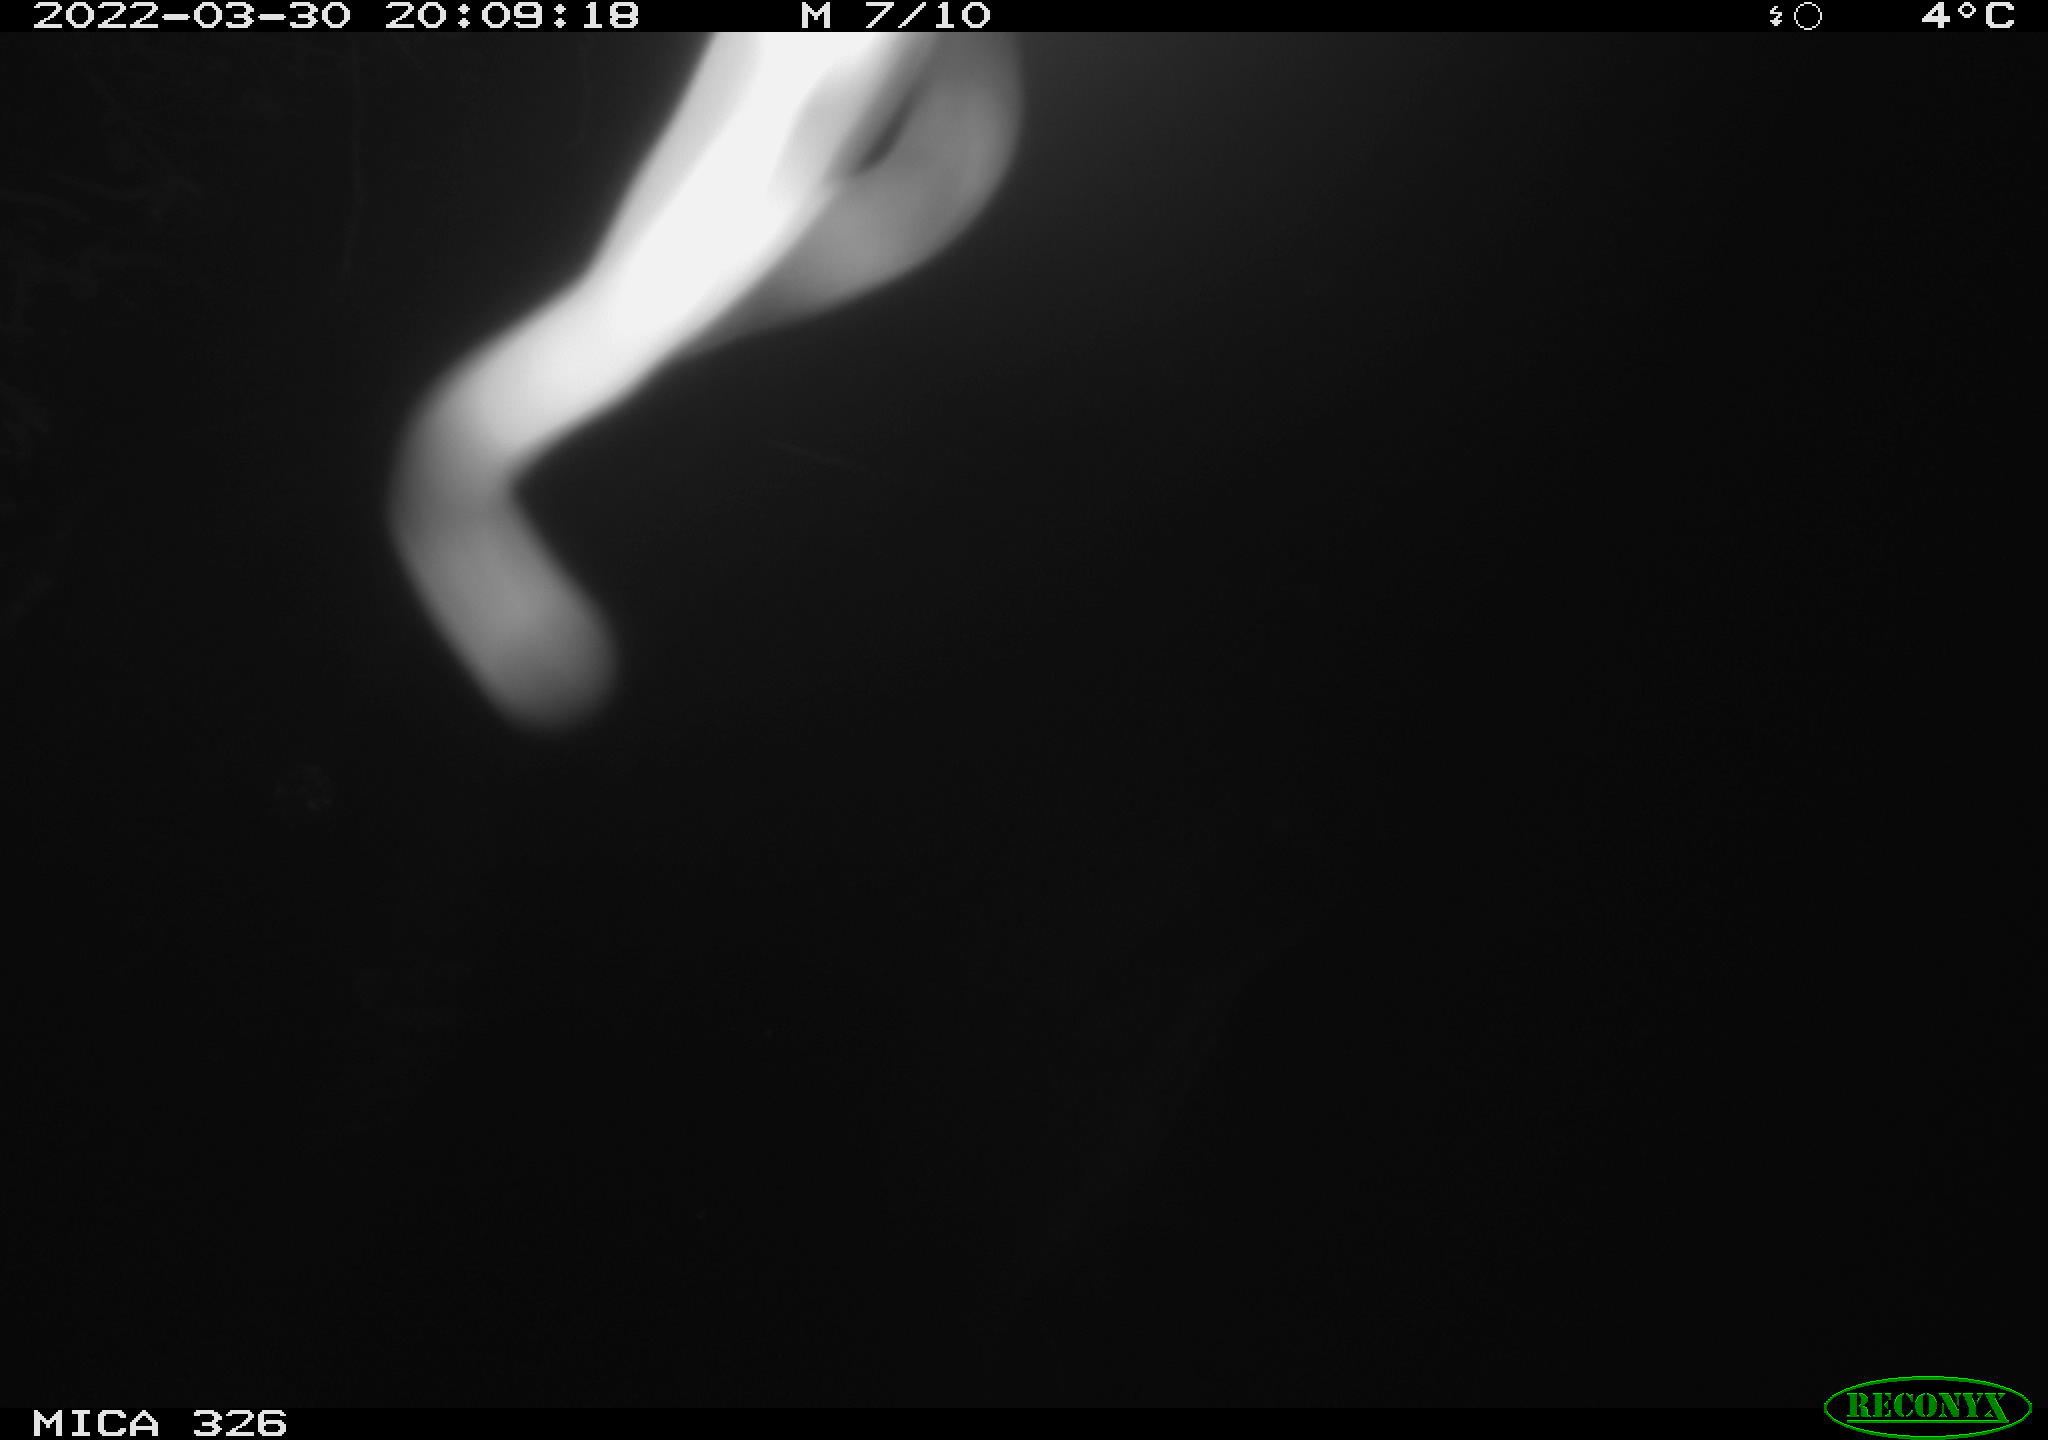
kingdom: Animalia
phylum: Chordata
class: Mammalia
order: Rodentia
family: Muridae
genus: Rattus
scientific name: Rattus norvegicus
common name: Brown rat
